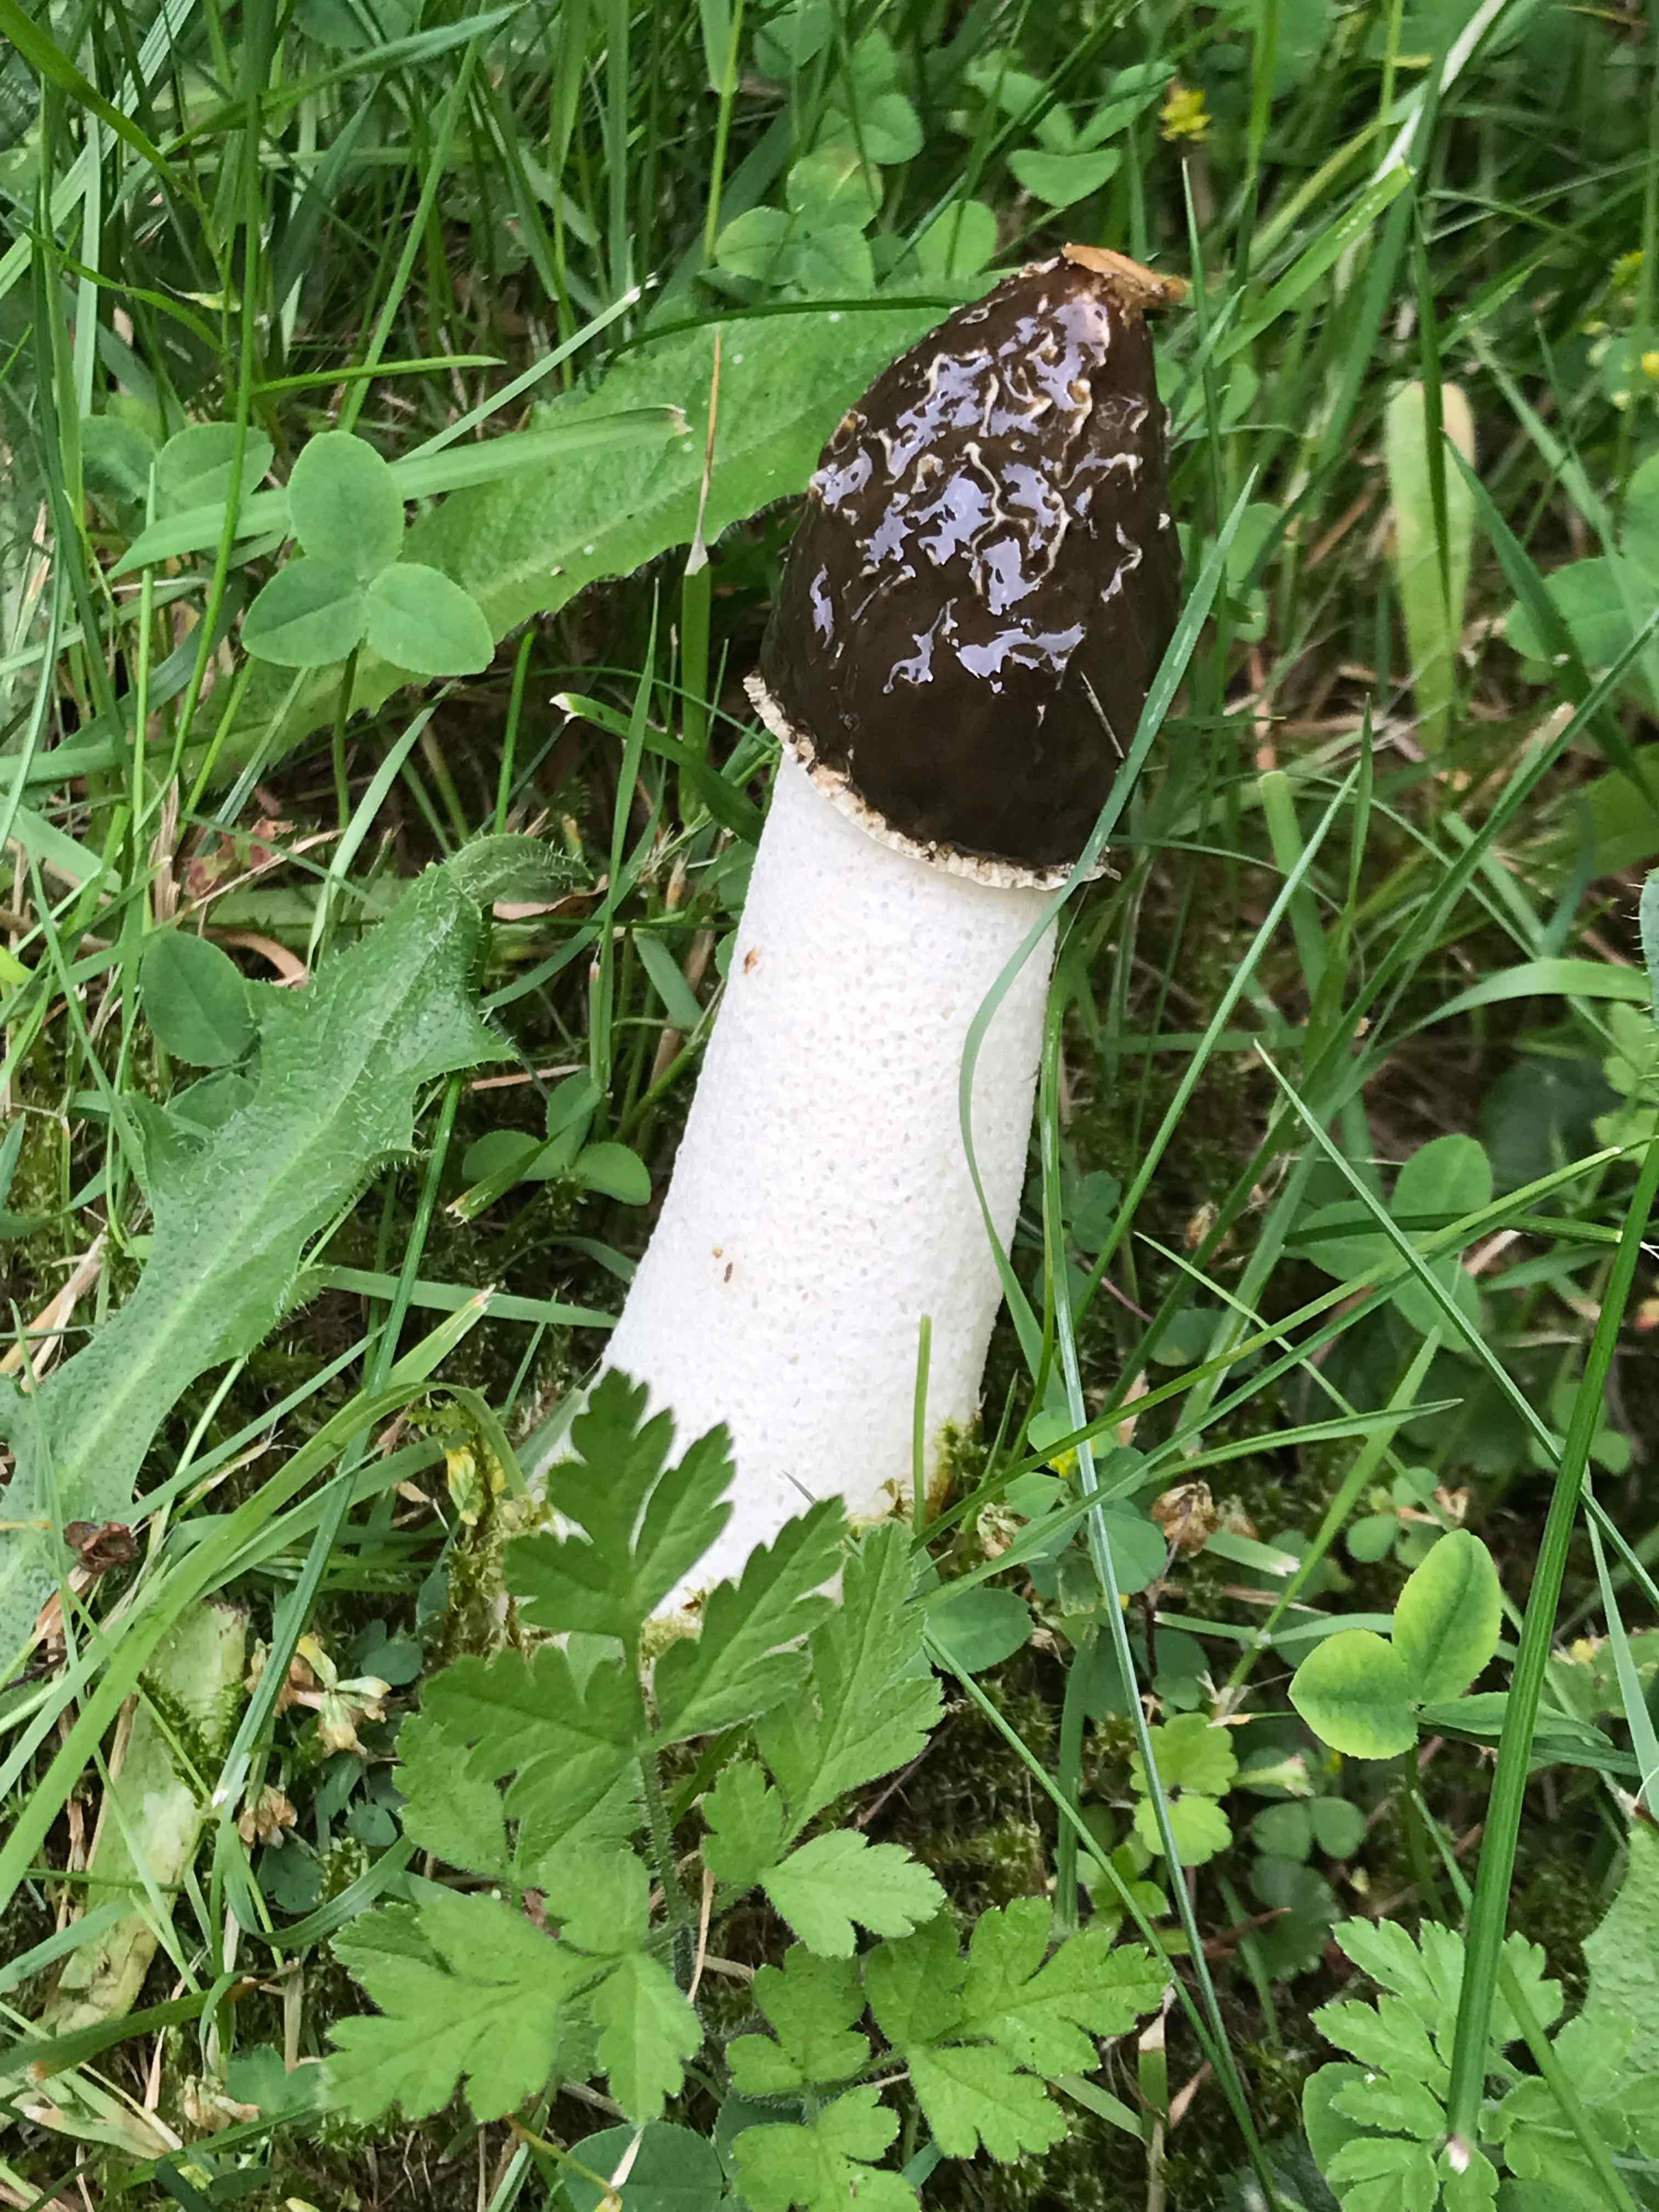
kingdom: Fungi
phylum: Basidiomycota
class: Agaricomycetes
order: Phallales
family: Phallaceae
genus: Phallus
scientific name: Phallus impudicus
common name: almindelig stinksvamp
